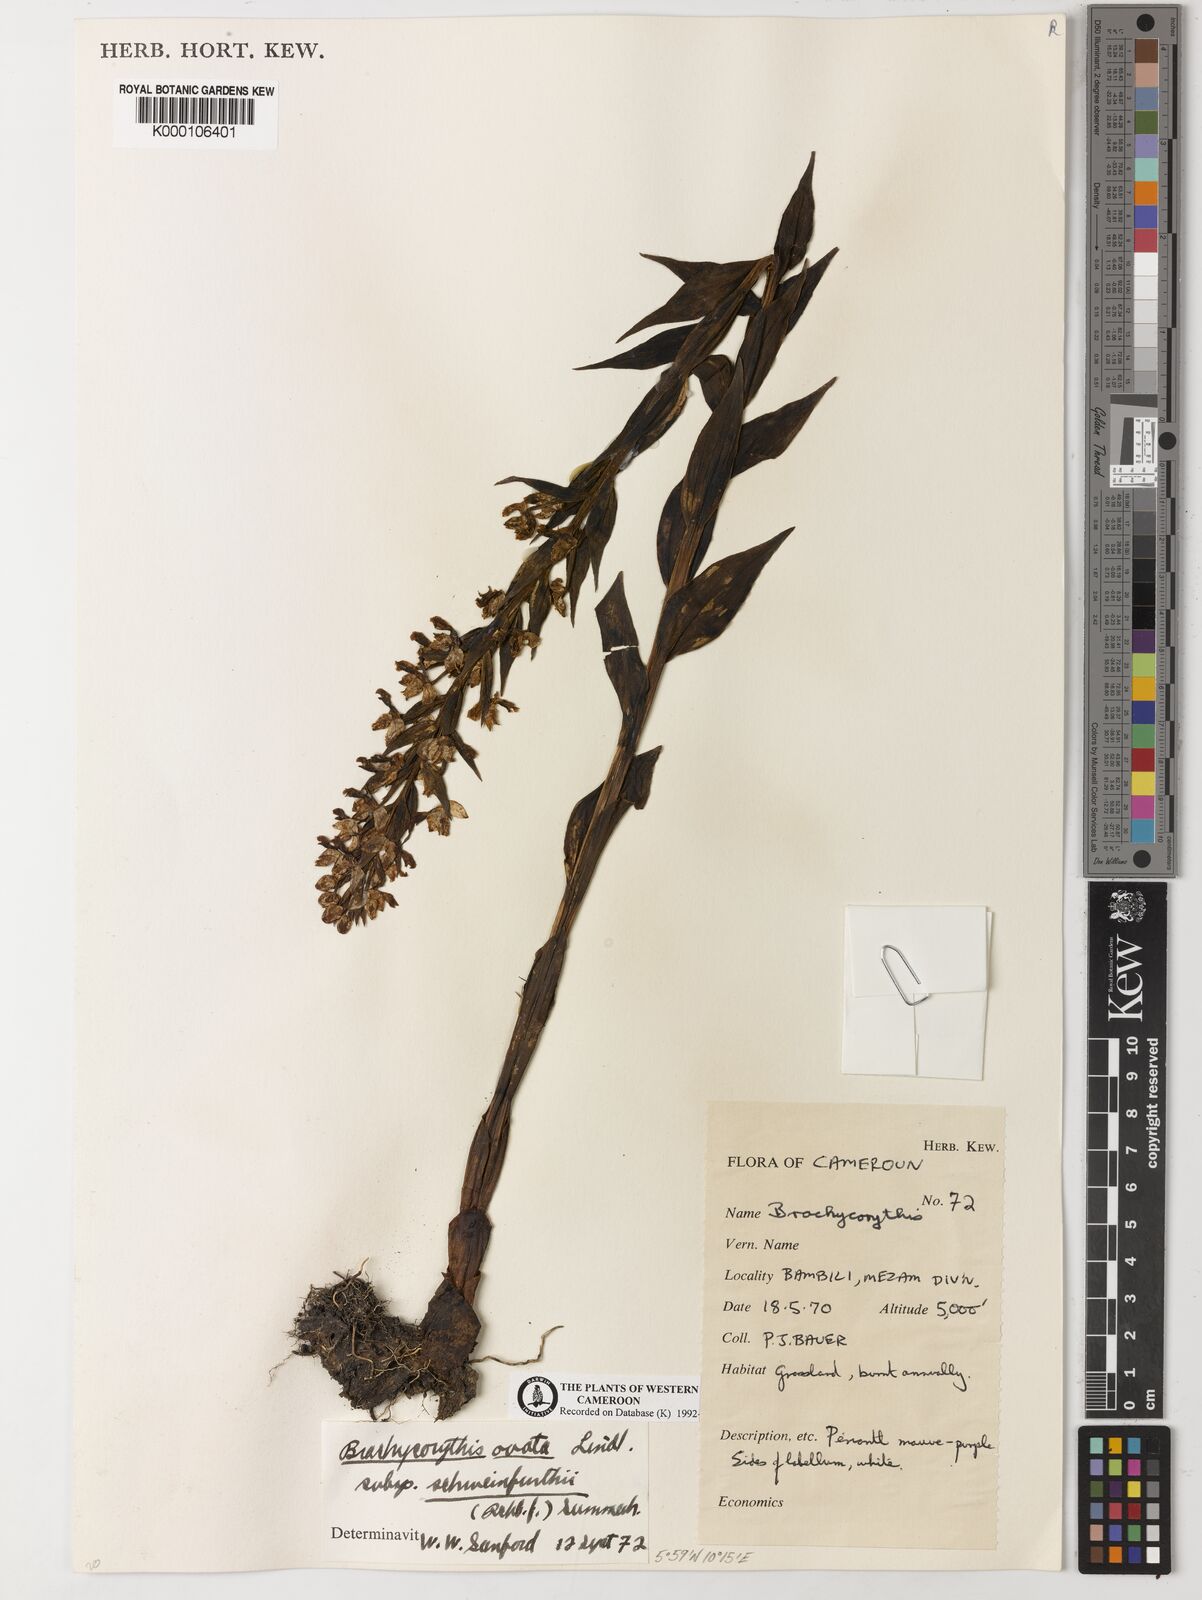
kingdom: Plantae
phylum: Tracheophyta
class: Liliopsida
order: Asparagales
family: Orchidaceae
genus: Brachycorythis
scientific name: Brachycorythis ovata
